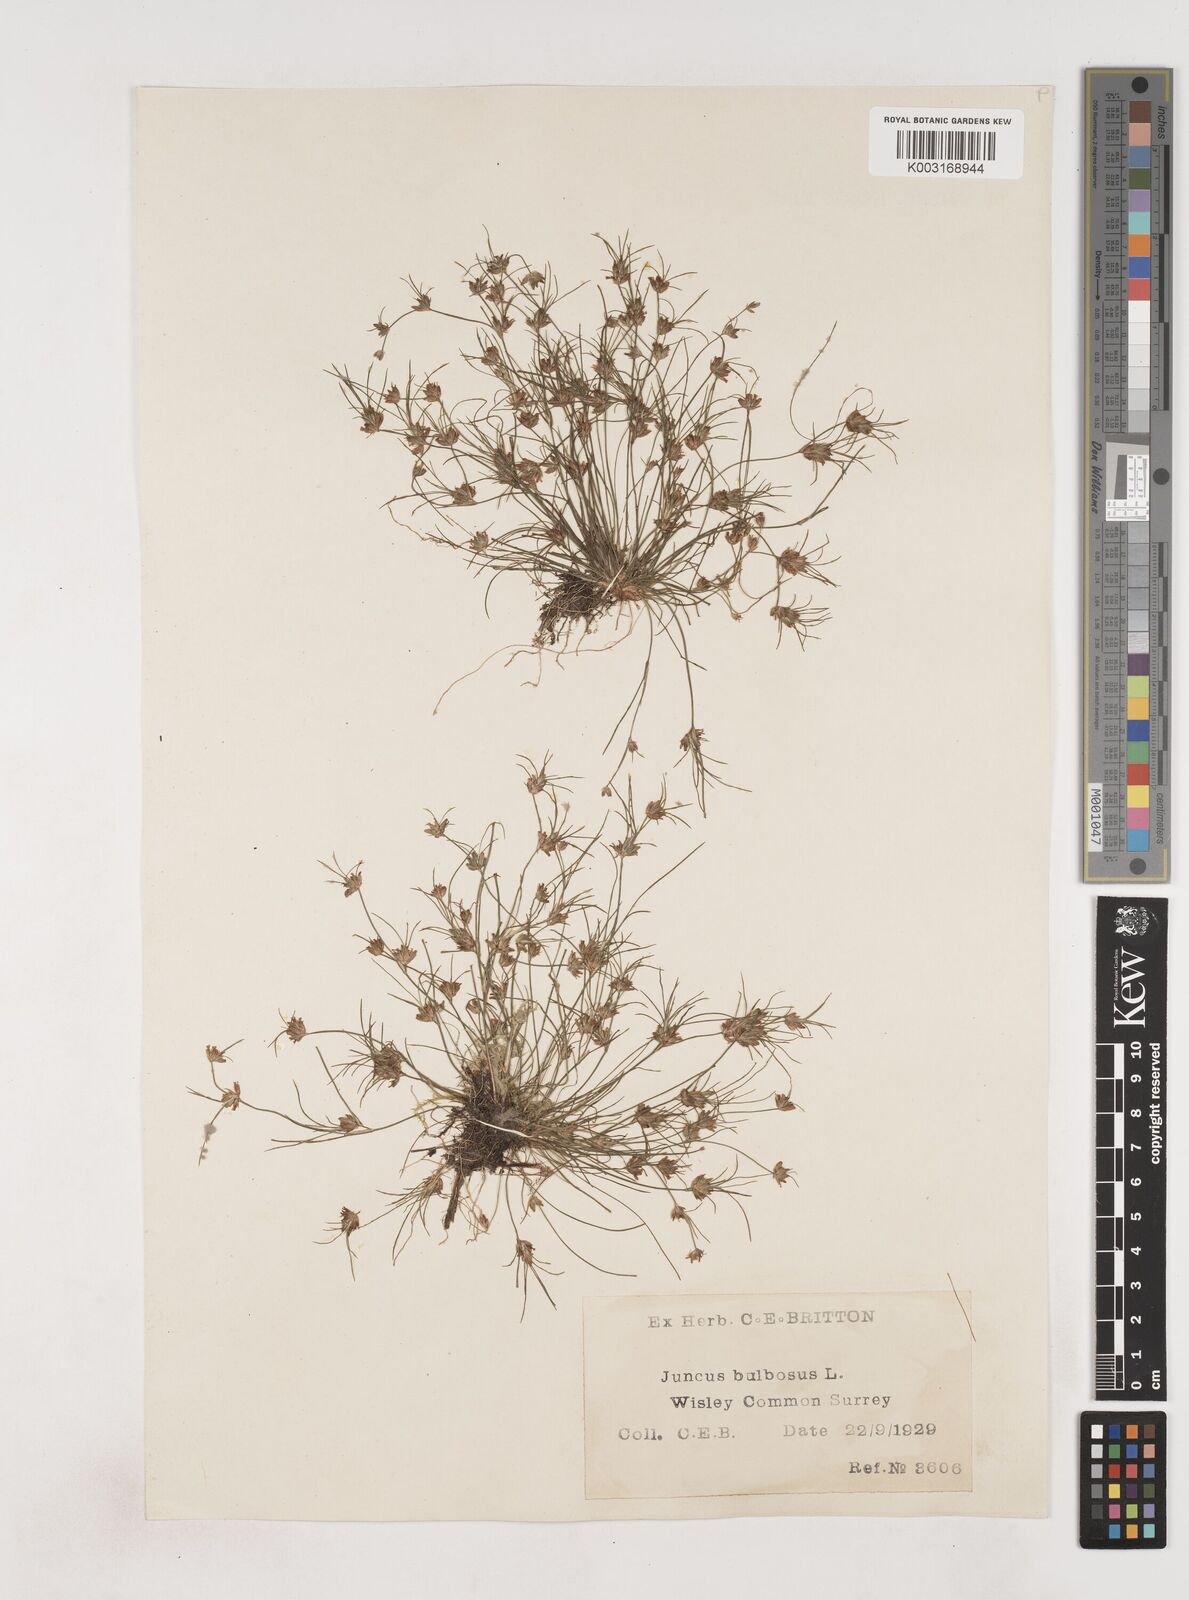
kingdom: Plantae
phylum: Tracheophyta
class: Liliopsida
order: Poales
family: Juncaceae
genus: Juncus
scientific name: Juncus bulbosus
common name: Bulbous rush
